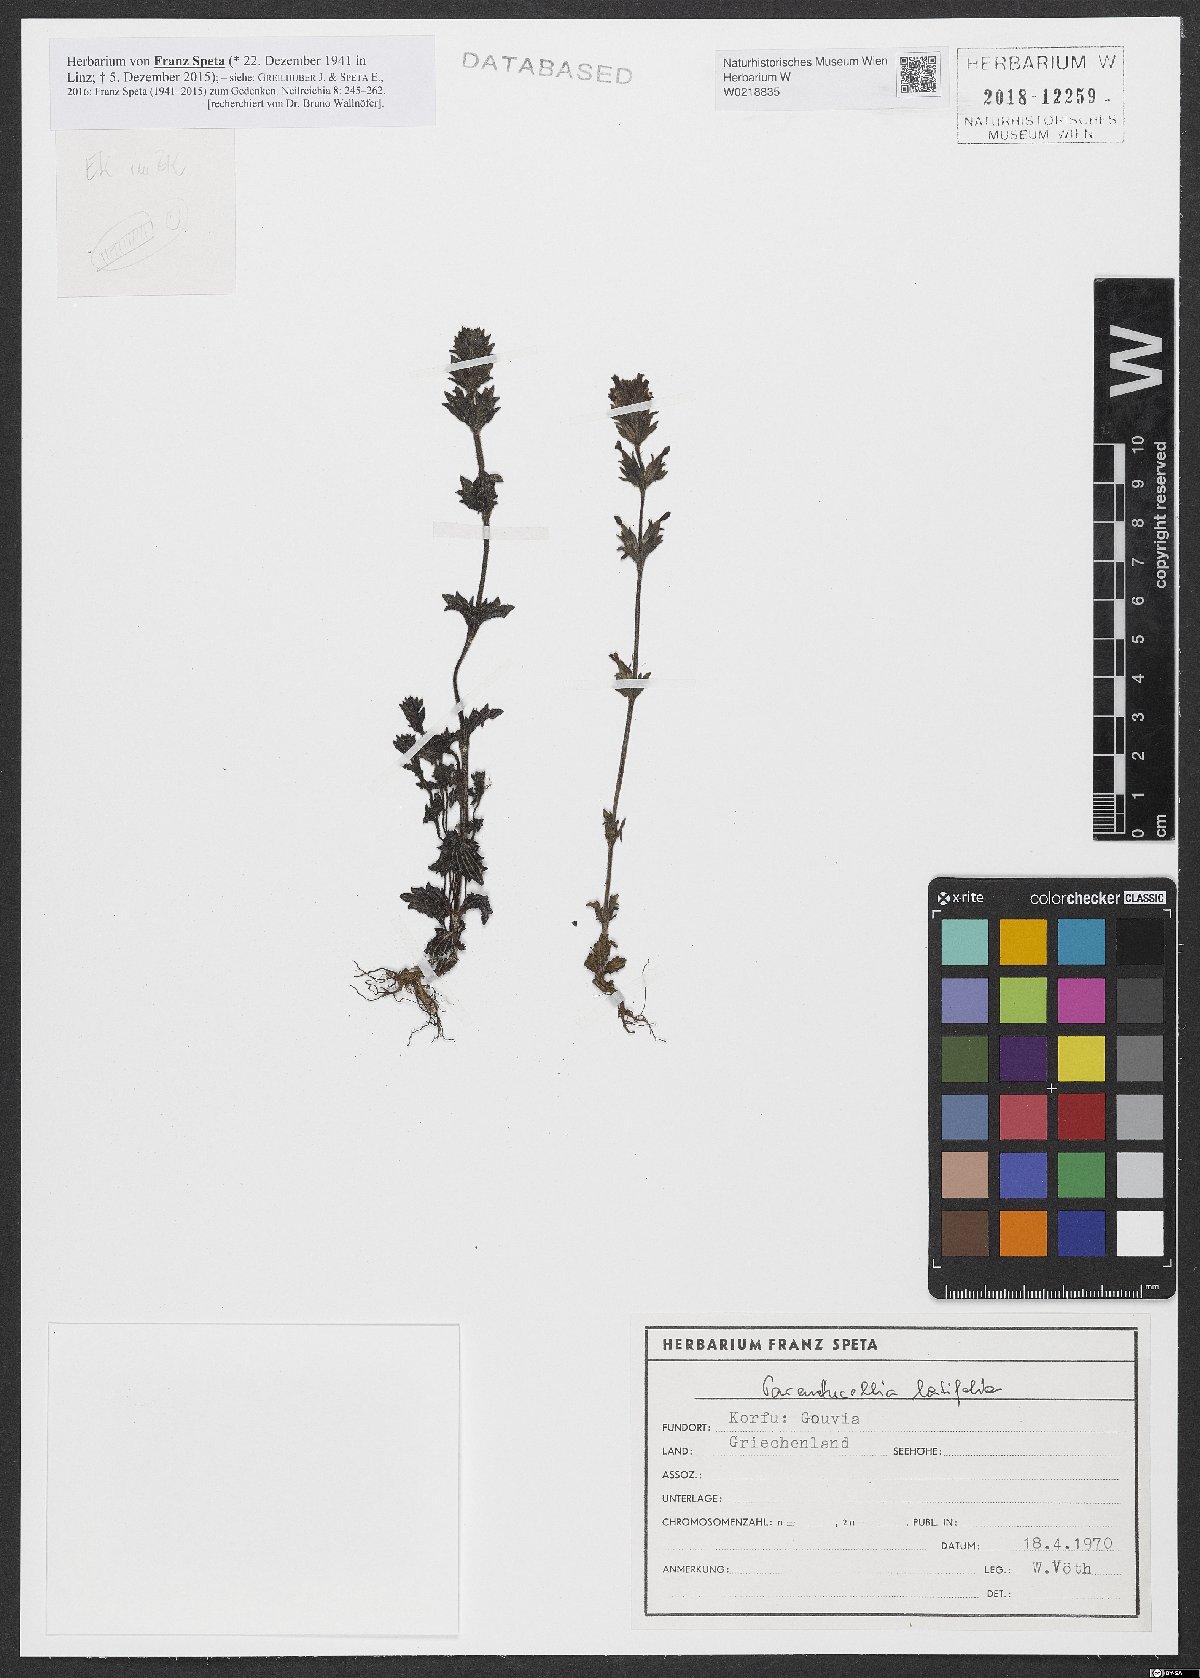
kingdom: Plantae
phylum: Tracheophyta
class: Magnoliopsida
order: Lamiales
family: Orobanchaceae
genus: Parentucellia
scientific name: Parentucellia latifolia
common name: Broadleaf glandweed
